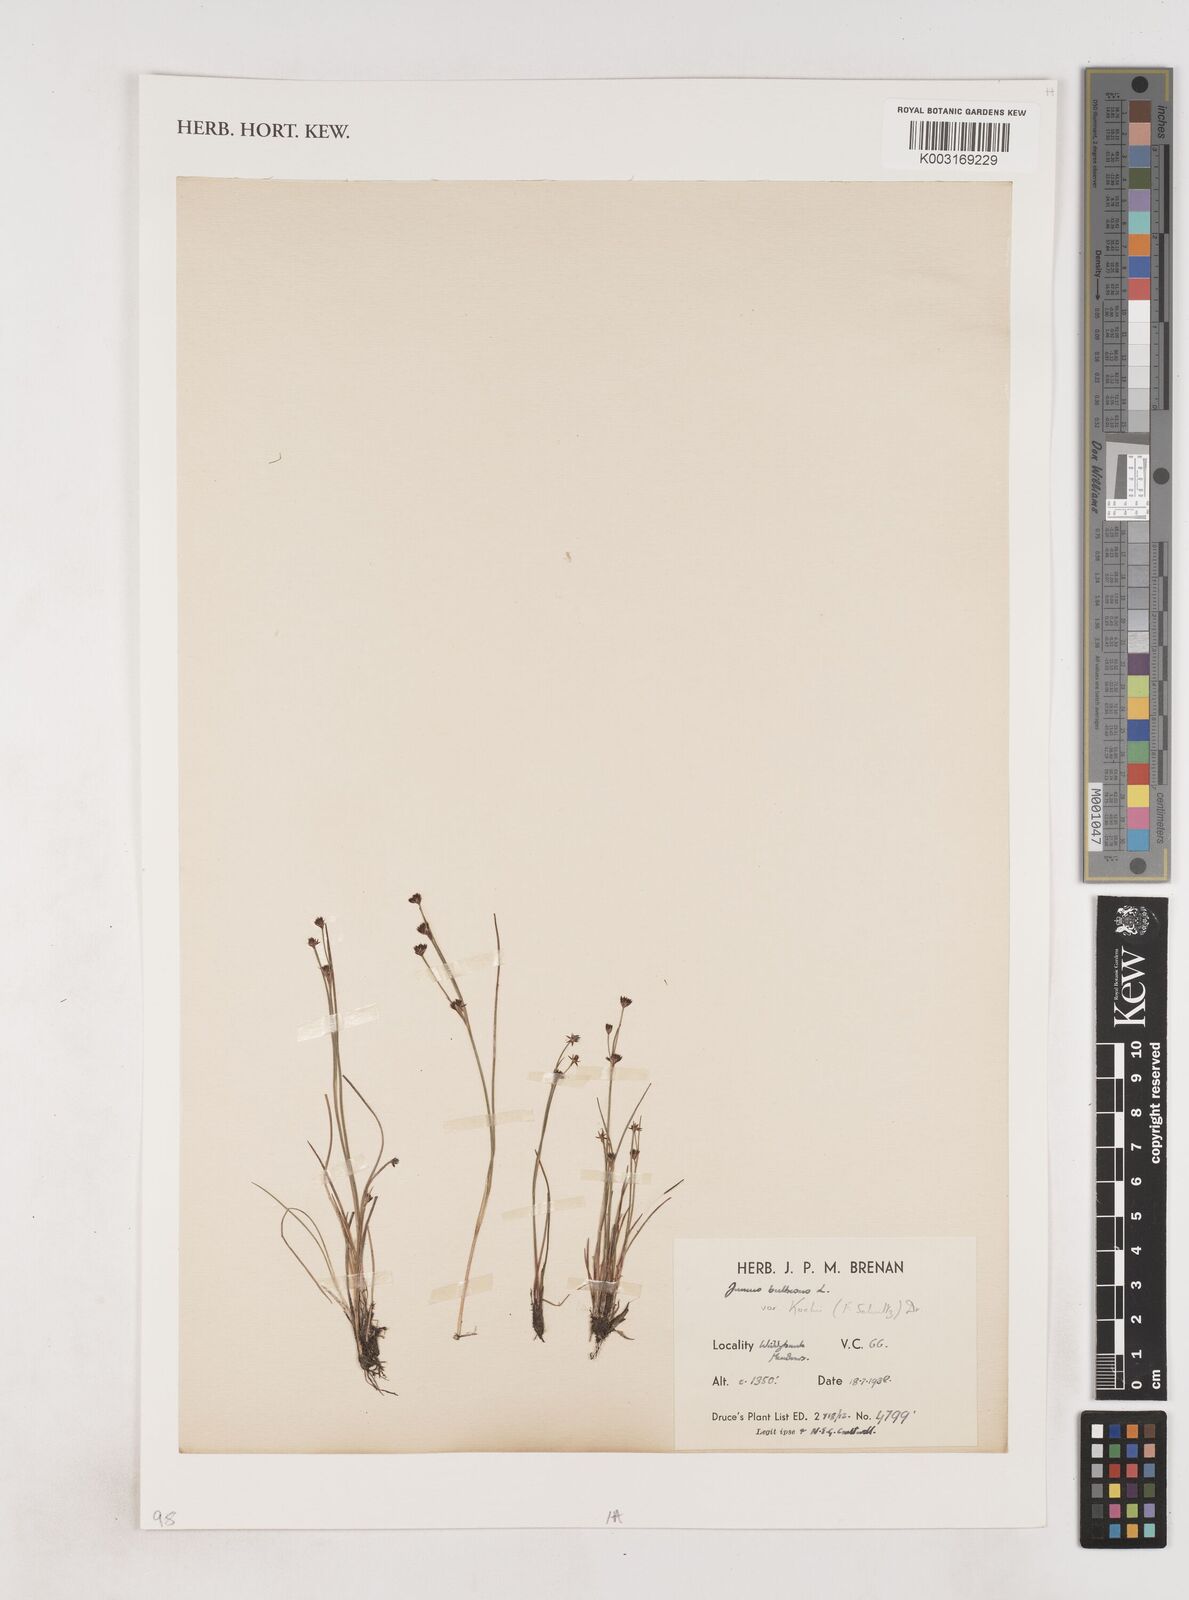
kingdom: Plantae
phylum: Tracheophyta
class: Liliopsida
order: Poales
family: Juncaceae
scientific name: Juncaceae
